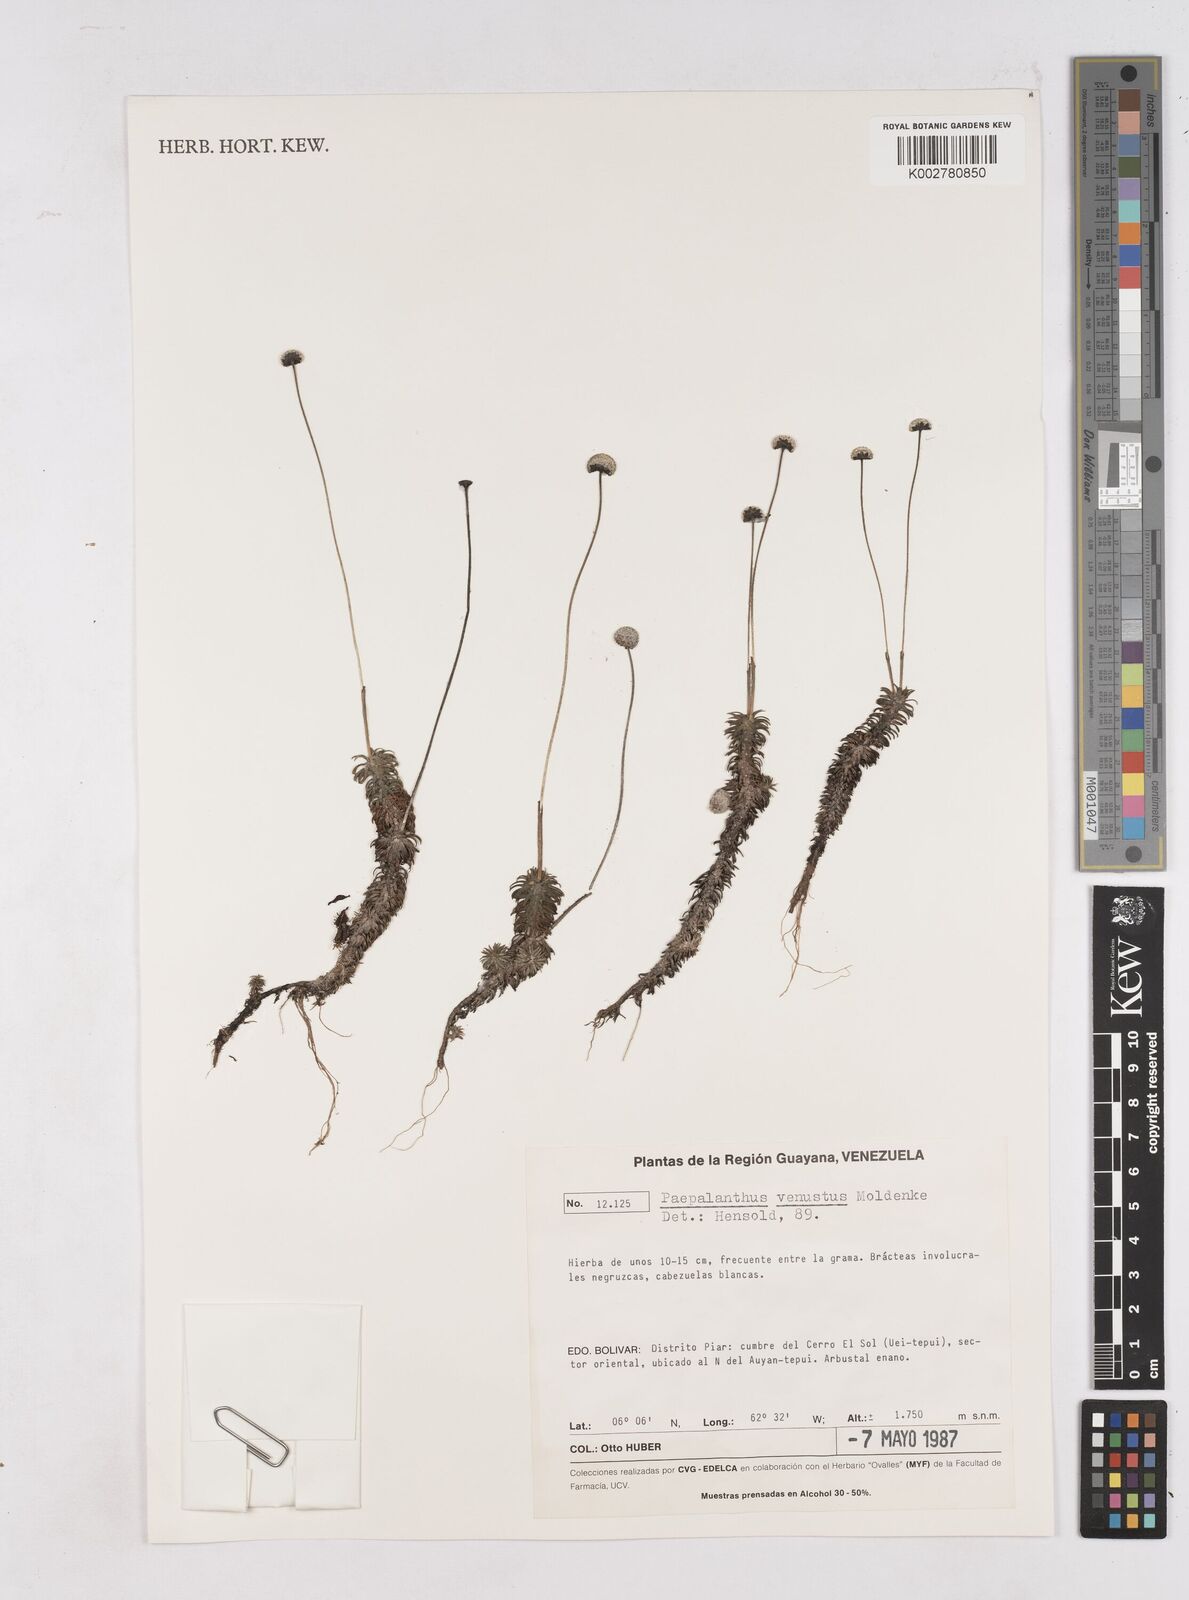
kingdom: Plantae
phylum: Tracheophyta
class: Liliopsida
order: Poales
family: Eriocaulaceae
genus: Paepalanthus
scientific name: Paepalanthus venustus
